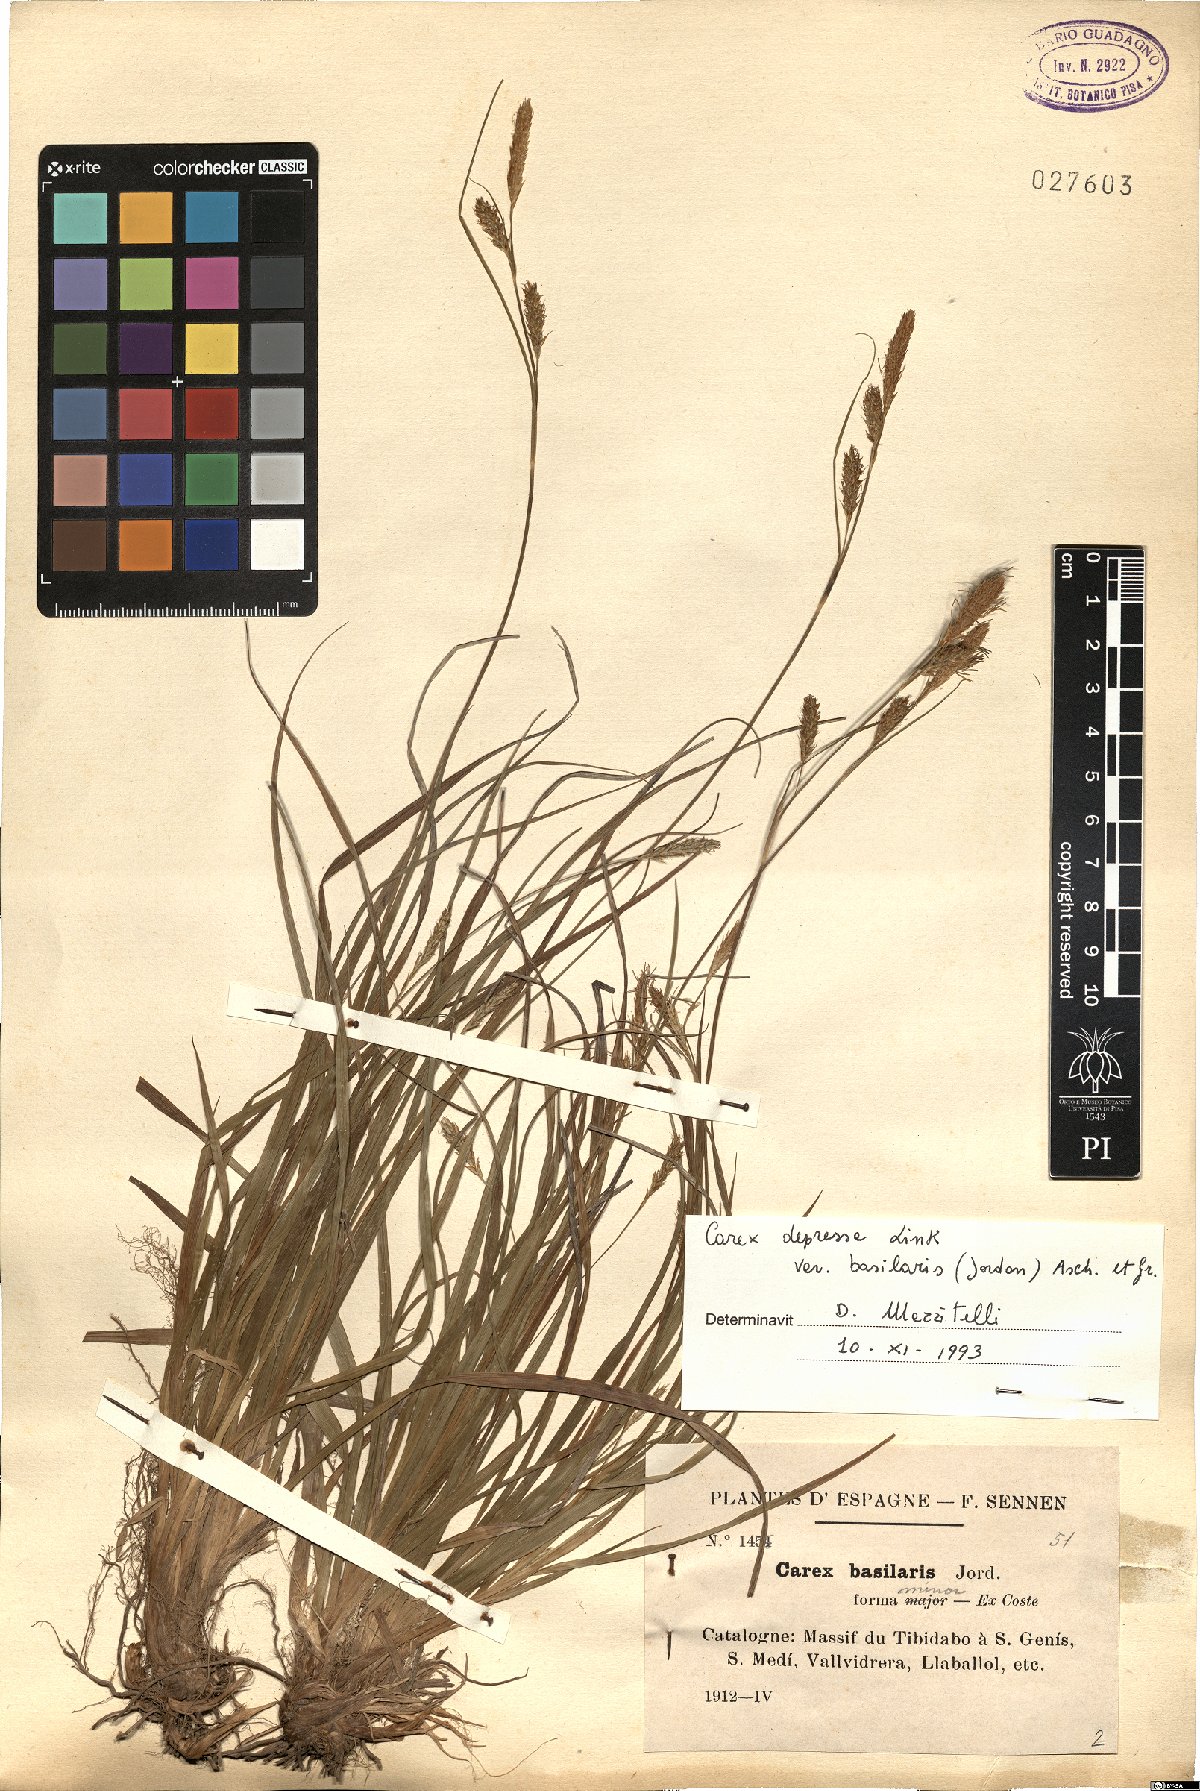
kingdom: Plantae
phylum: Tracheophyta
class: Liliopsida
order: Poales
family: Cyperaceae
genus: Carex
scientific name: Carex depressa
